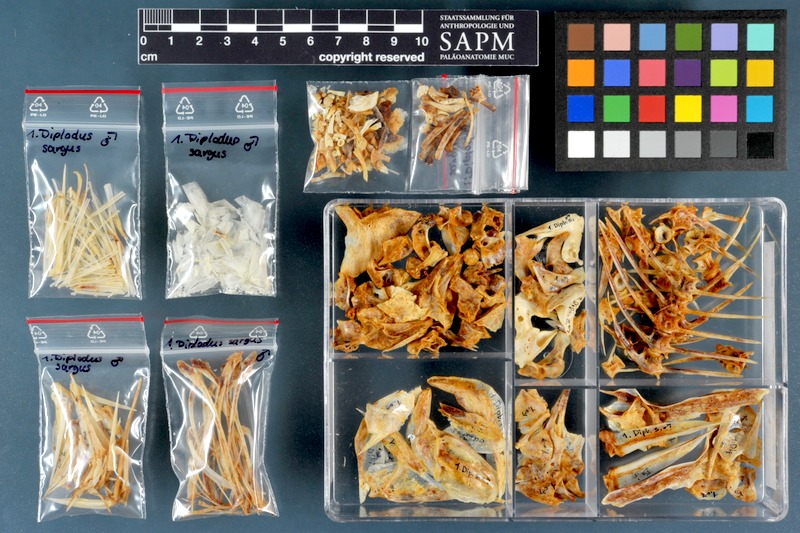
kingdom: Animalia
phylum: Chordata
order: Perciformes
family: Sparidae
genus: Diplodus
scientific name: Diplodus sargus
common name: White seabream
